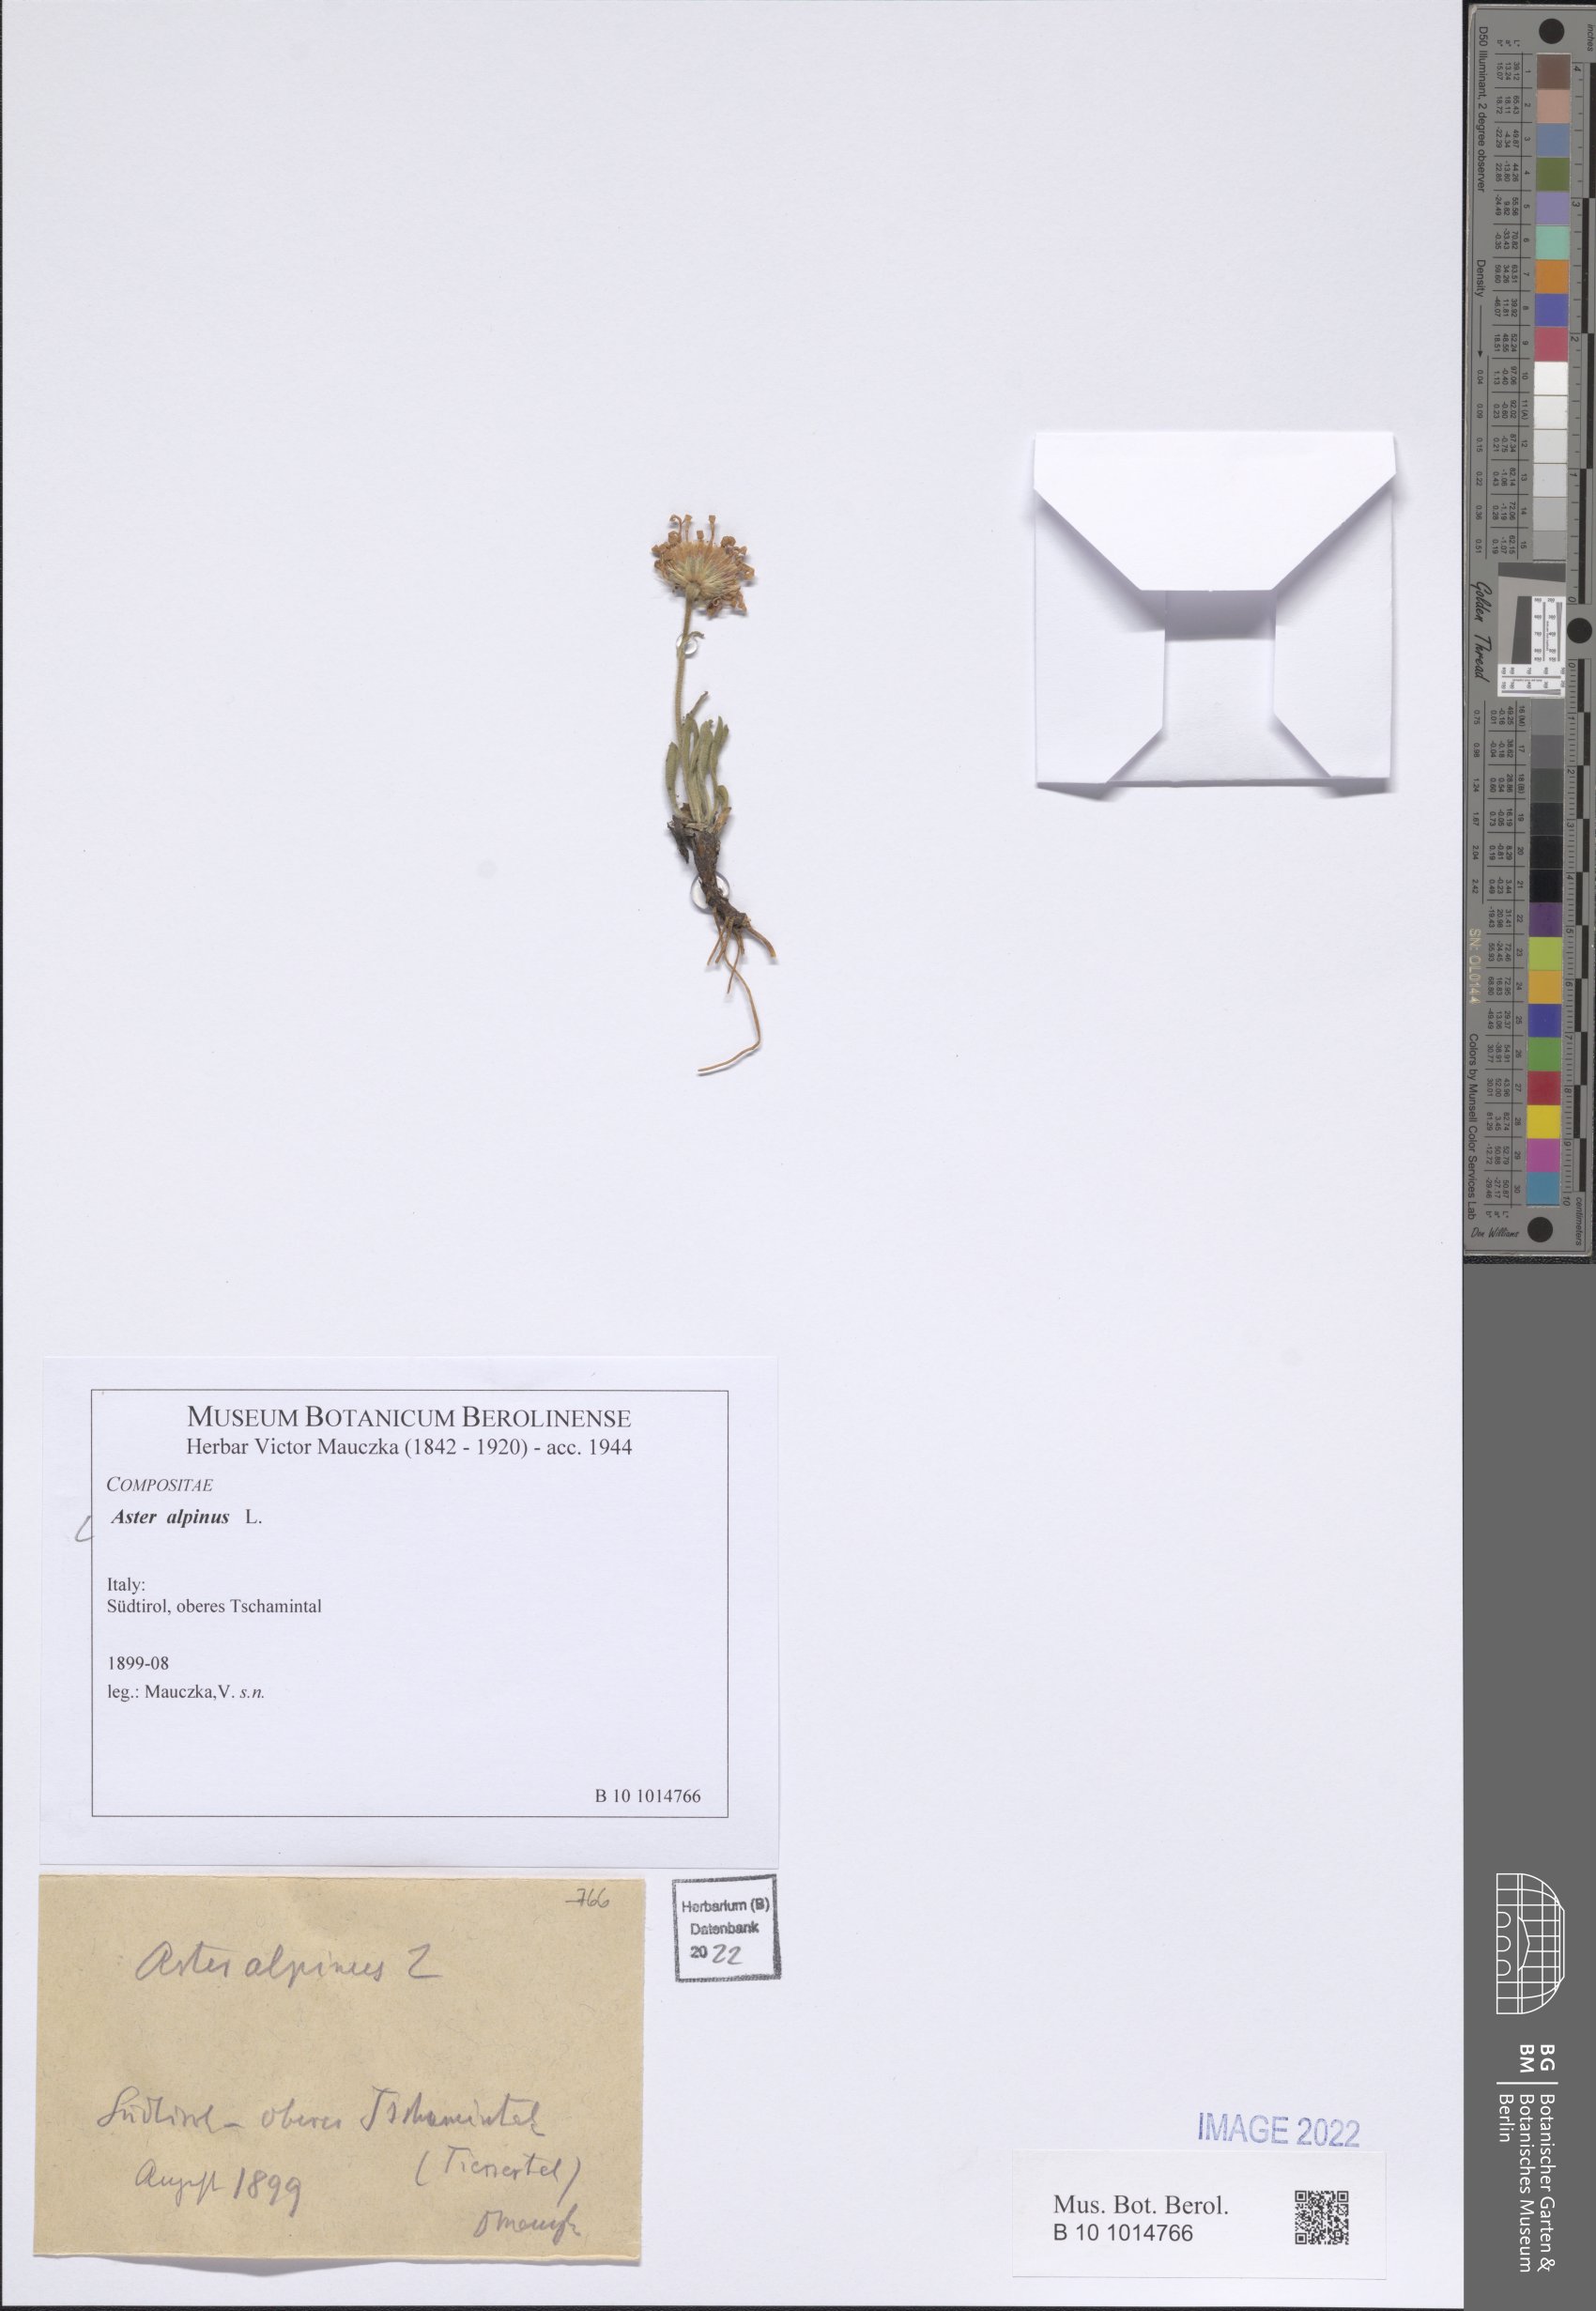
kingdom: Plantae
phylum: Tracheophyta
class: Magnoliopsida
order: Asterales
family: Asteraceae
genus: Aster
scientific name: Aster alpinus
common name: Alpine aster
